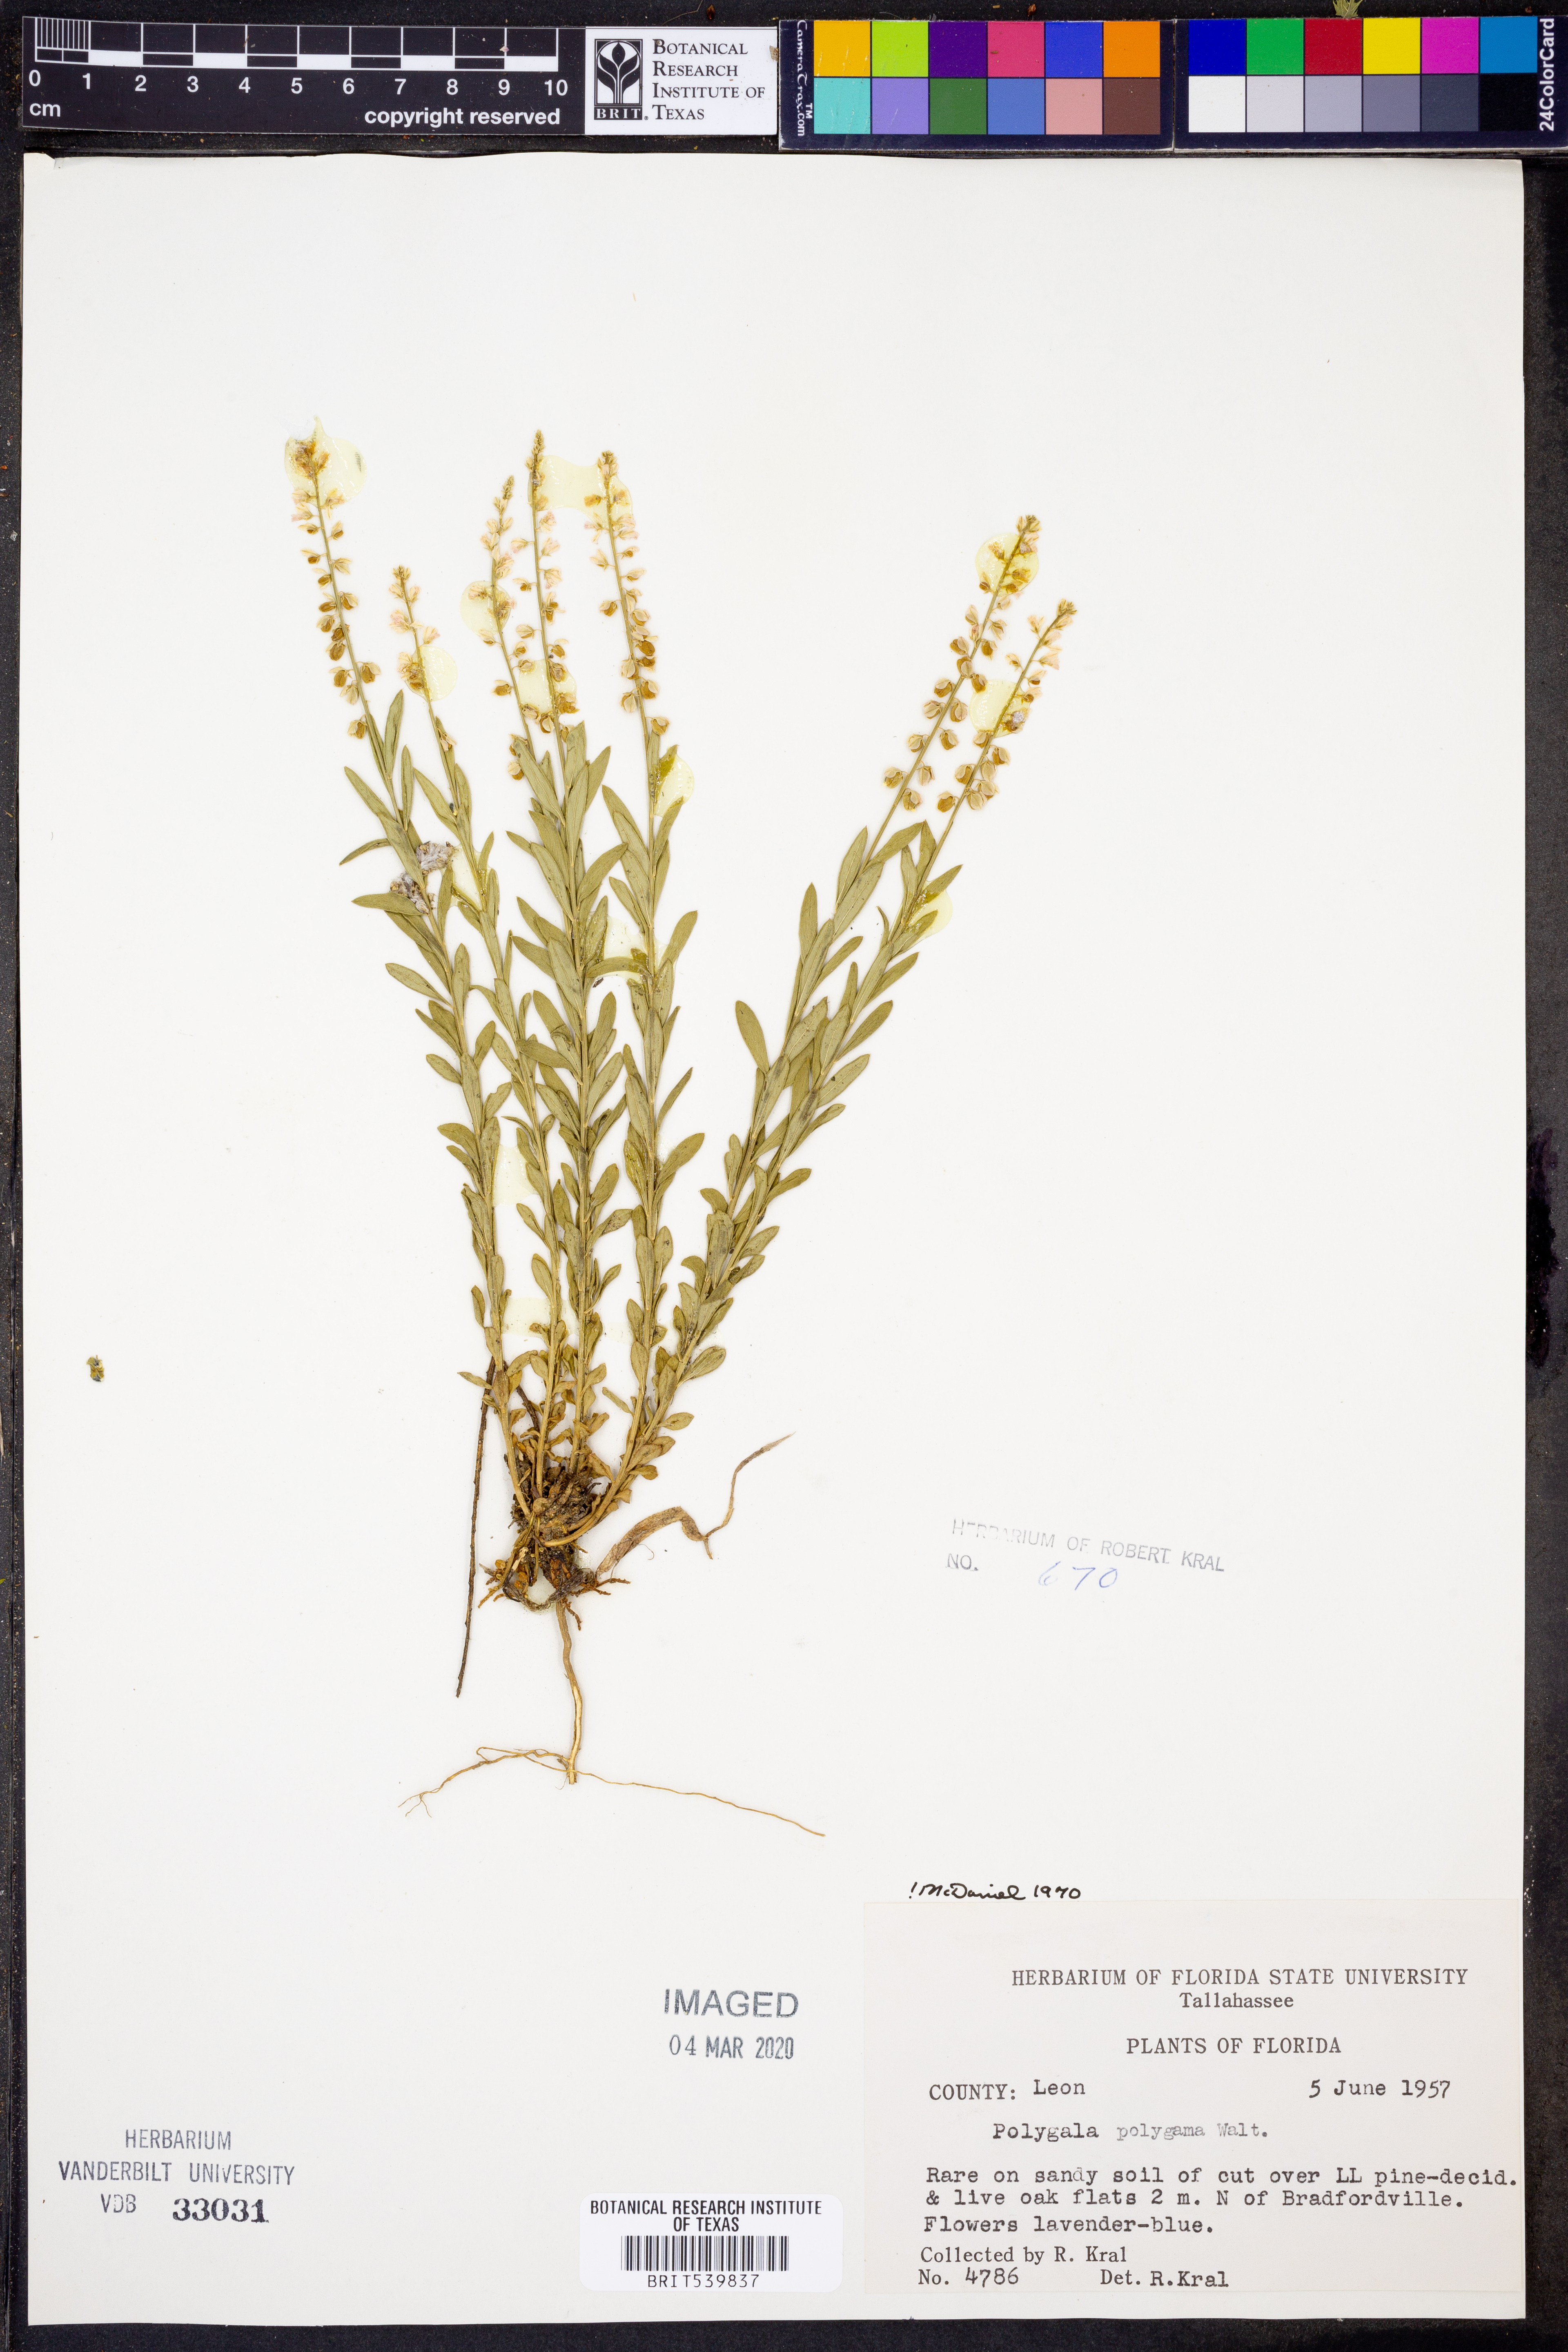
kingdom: Plantae
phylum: Tracheophyta
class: Magnoliopsida
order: Fabales
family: Polygalaceae
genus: Polygala
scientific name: Polygala polygama
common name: Bitter milkwort
